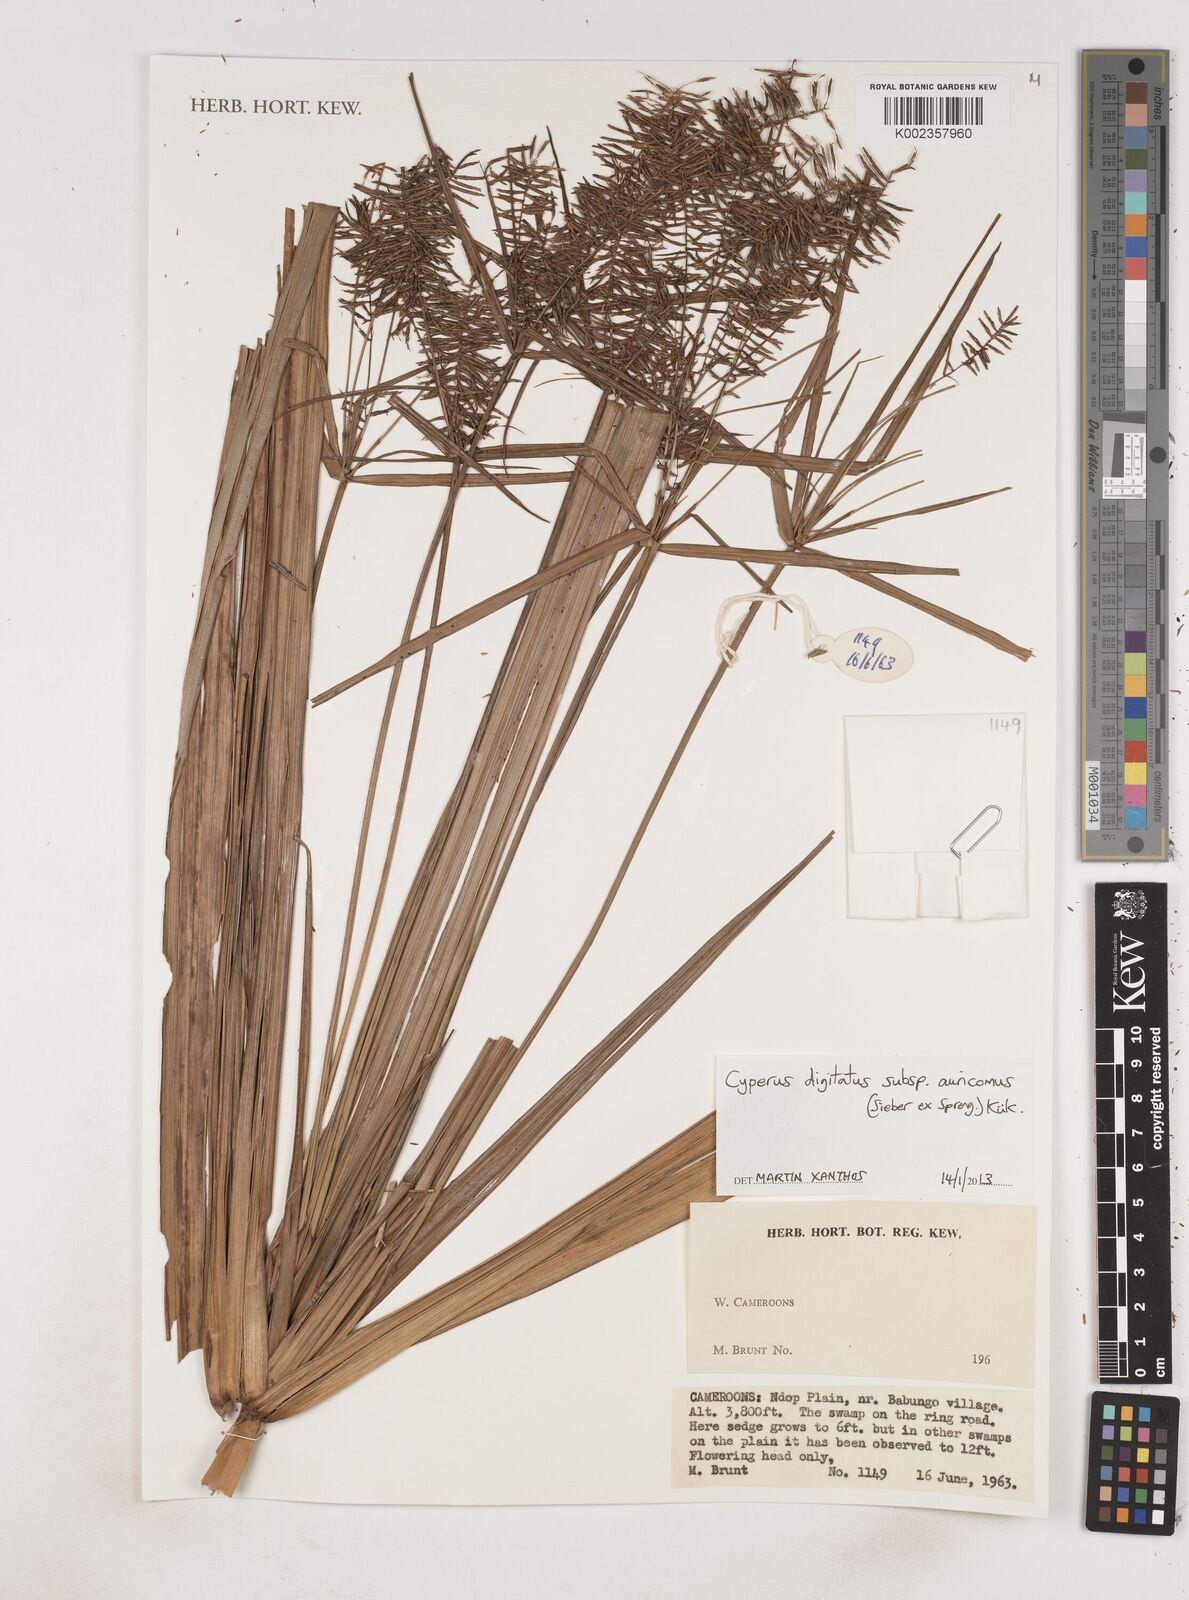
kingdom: Plantae
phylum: Tracheophyta
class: Liliopsida
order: Poales
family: Cyperaceae
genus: Cyperus
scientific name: Cyperus digitatus
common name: Finger flatsedge
